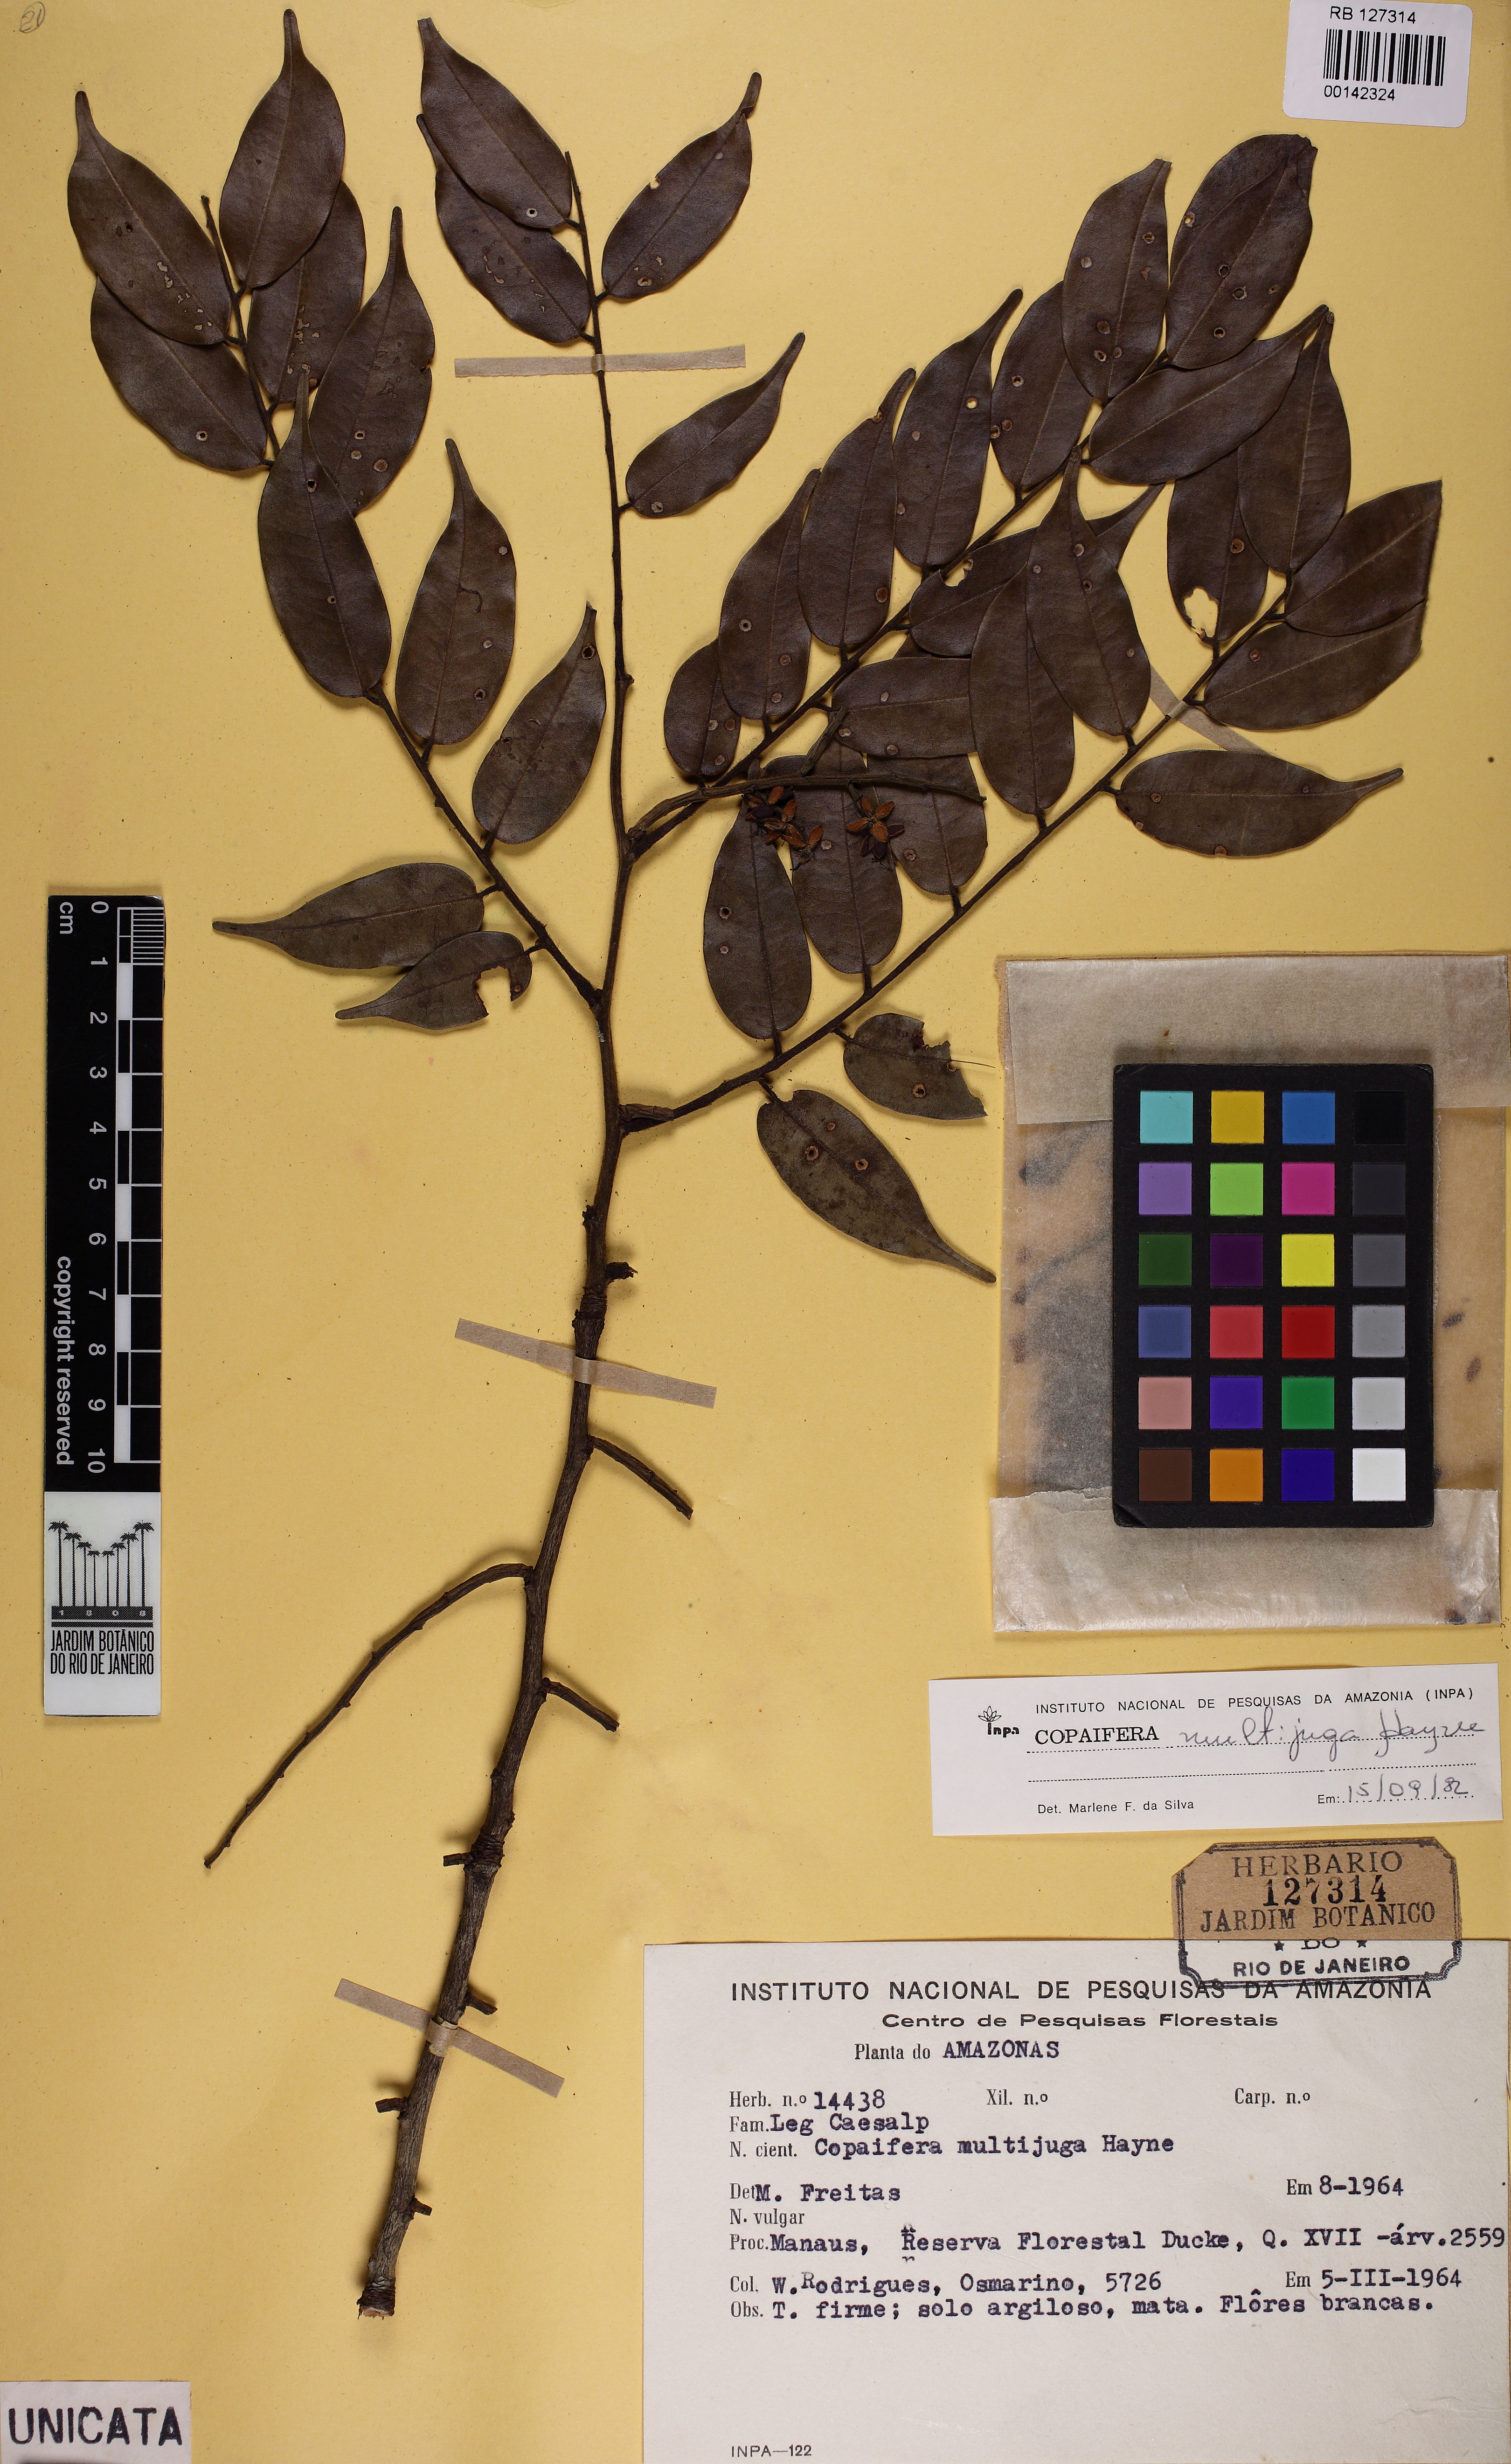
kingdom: Plantae
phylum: Tracheophyta
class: Magnoliopsida
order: Fabales
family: Fabaceae
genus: Copaifera
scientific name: Copaifera multijuga
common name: Brazilian copaiba
